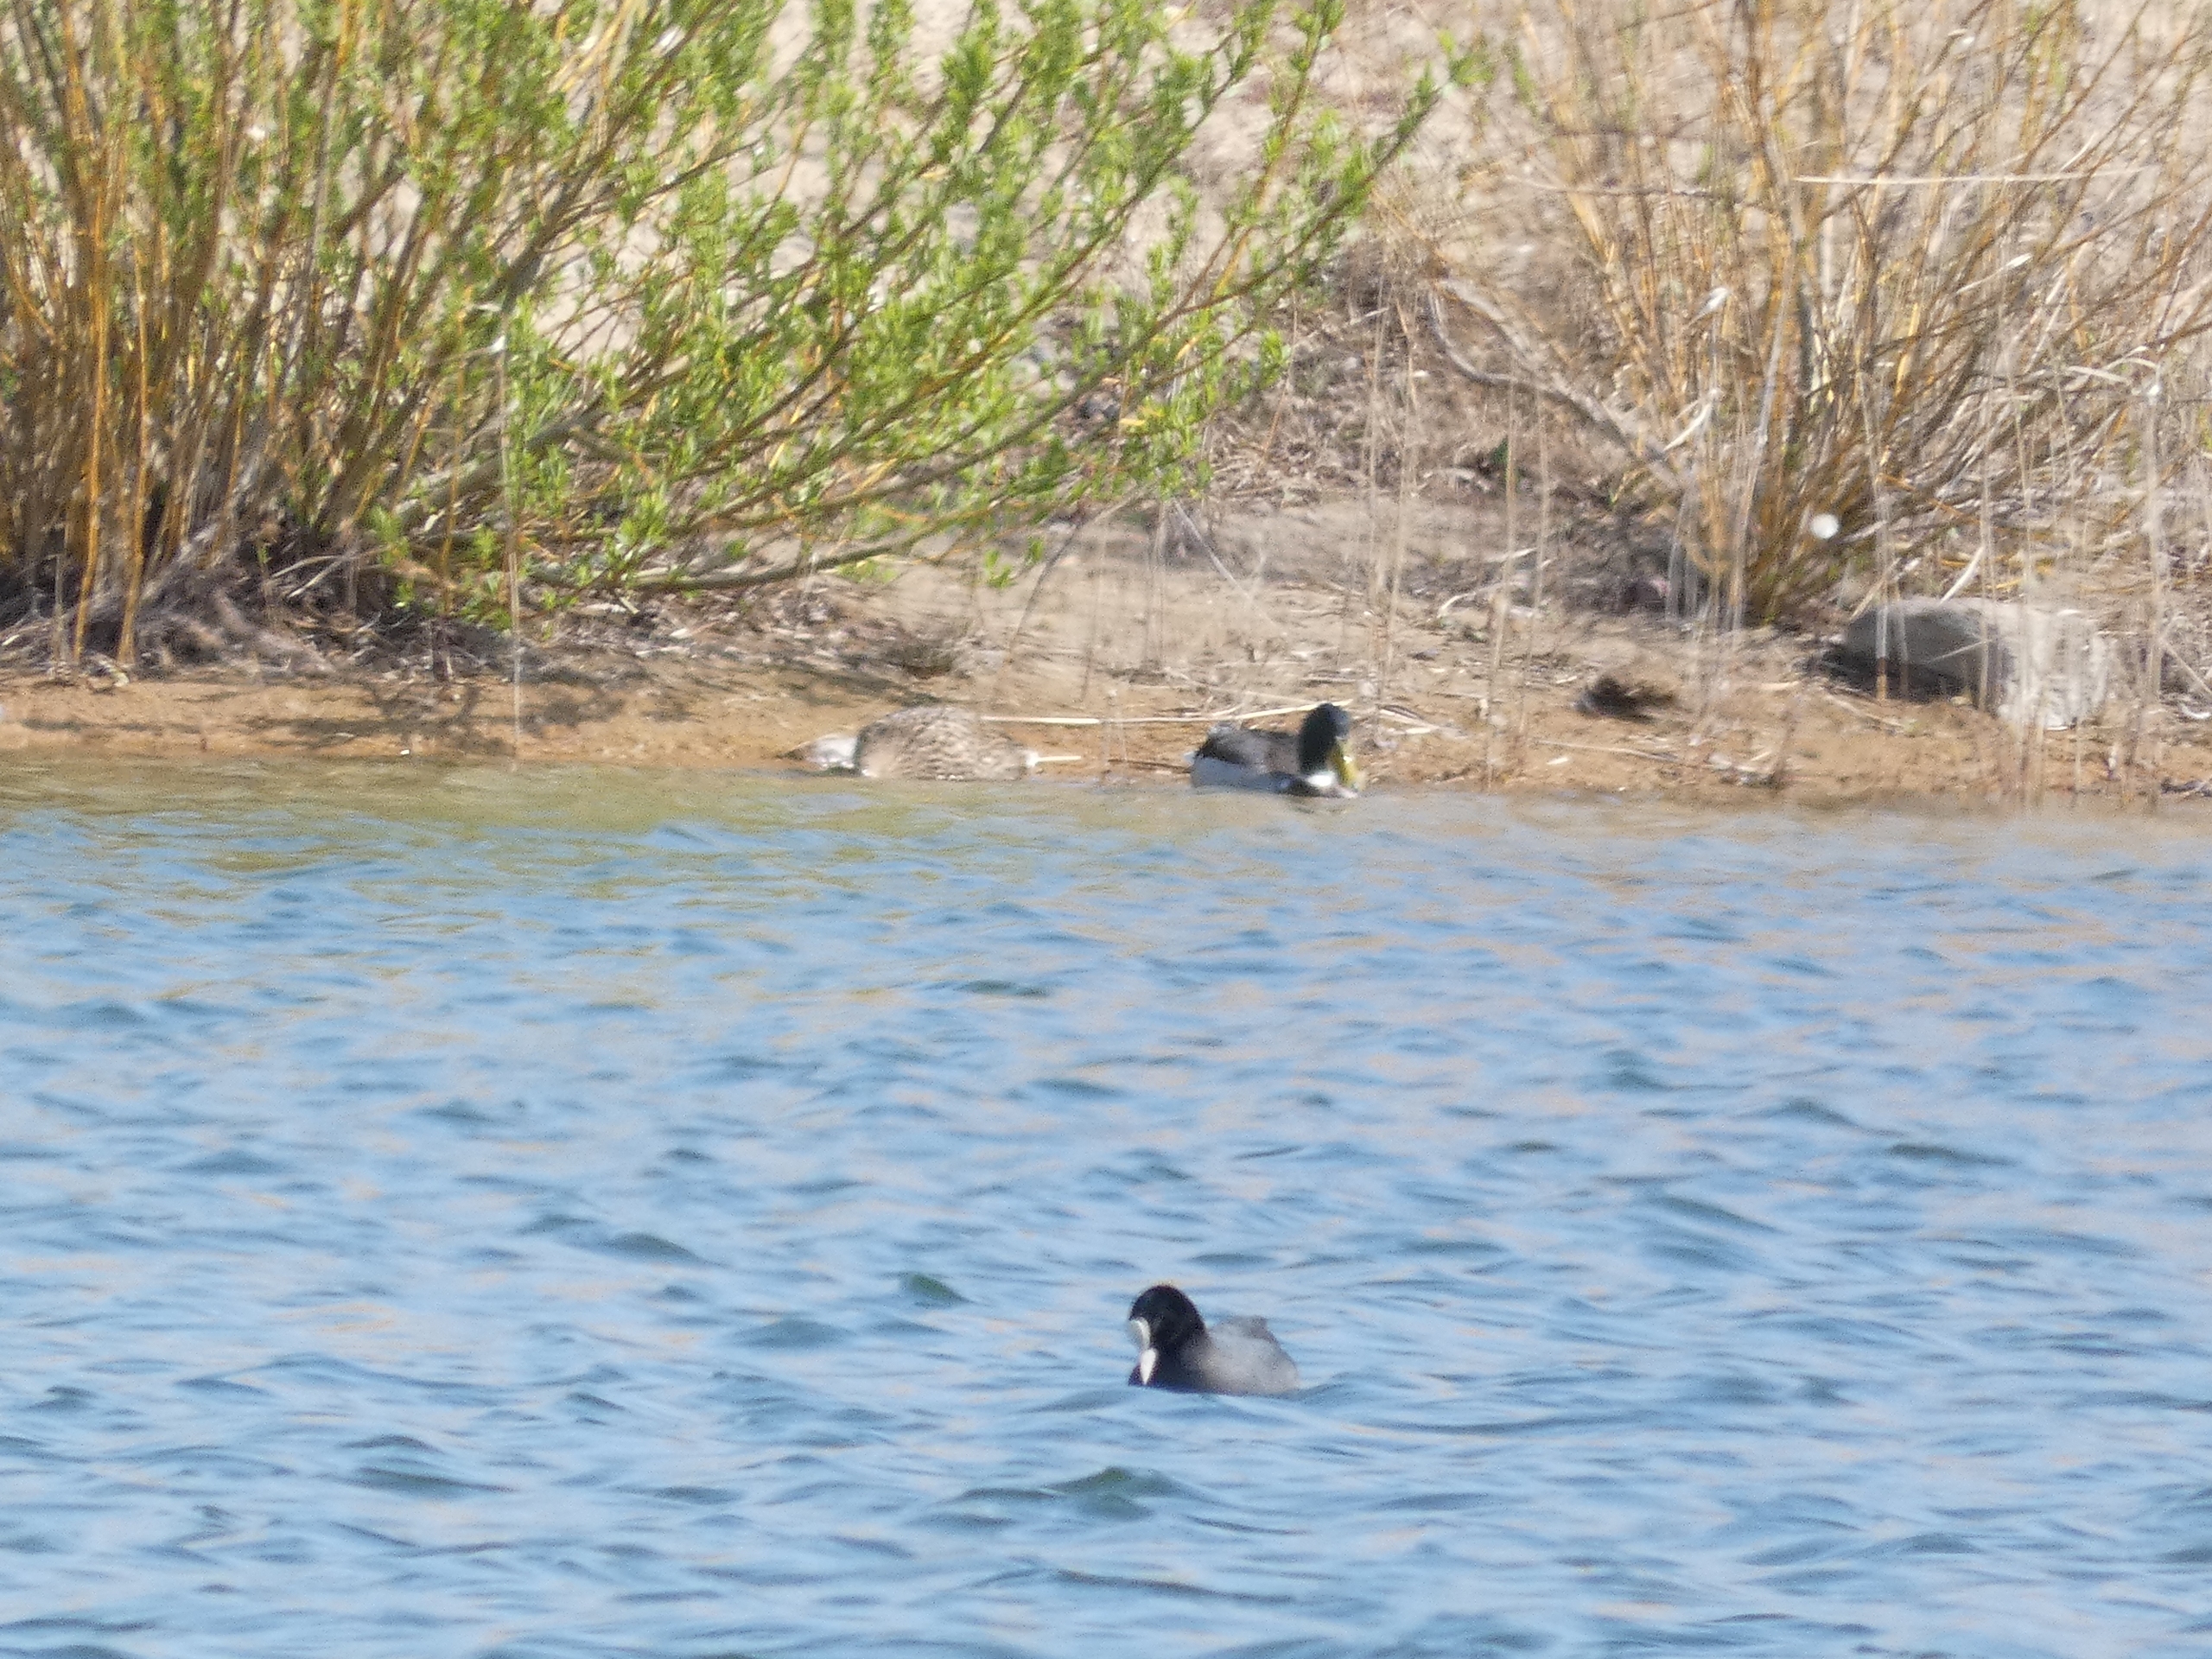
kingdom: Animalia
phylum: Chordata
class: Aves
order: Anseriformes
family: Anatidae
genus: Anas
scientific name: Anas platyrhynchos
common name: Gråand
